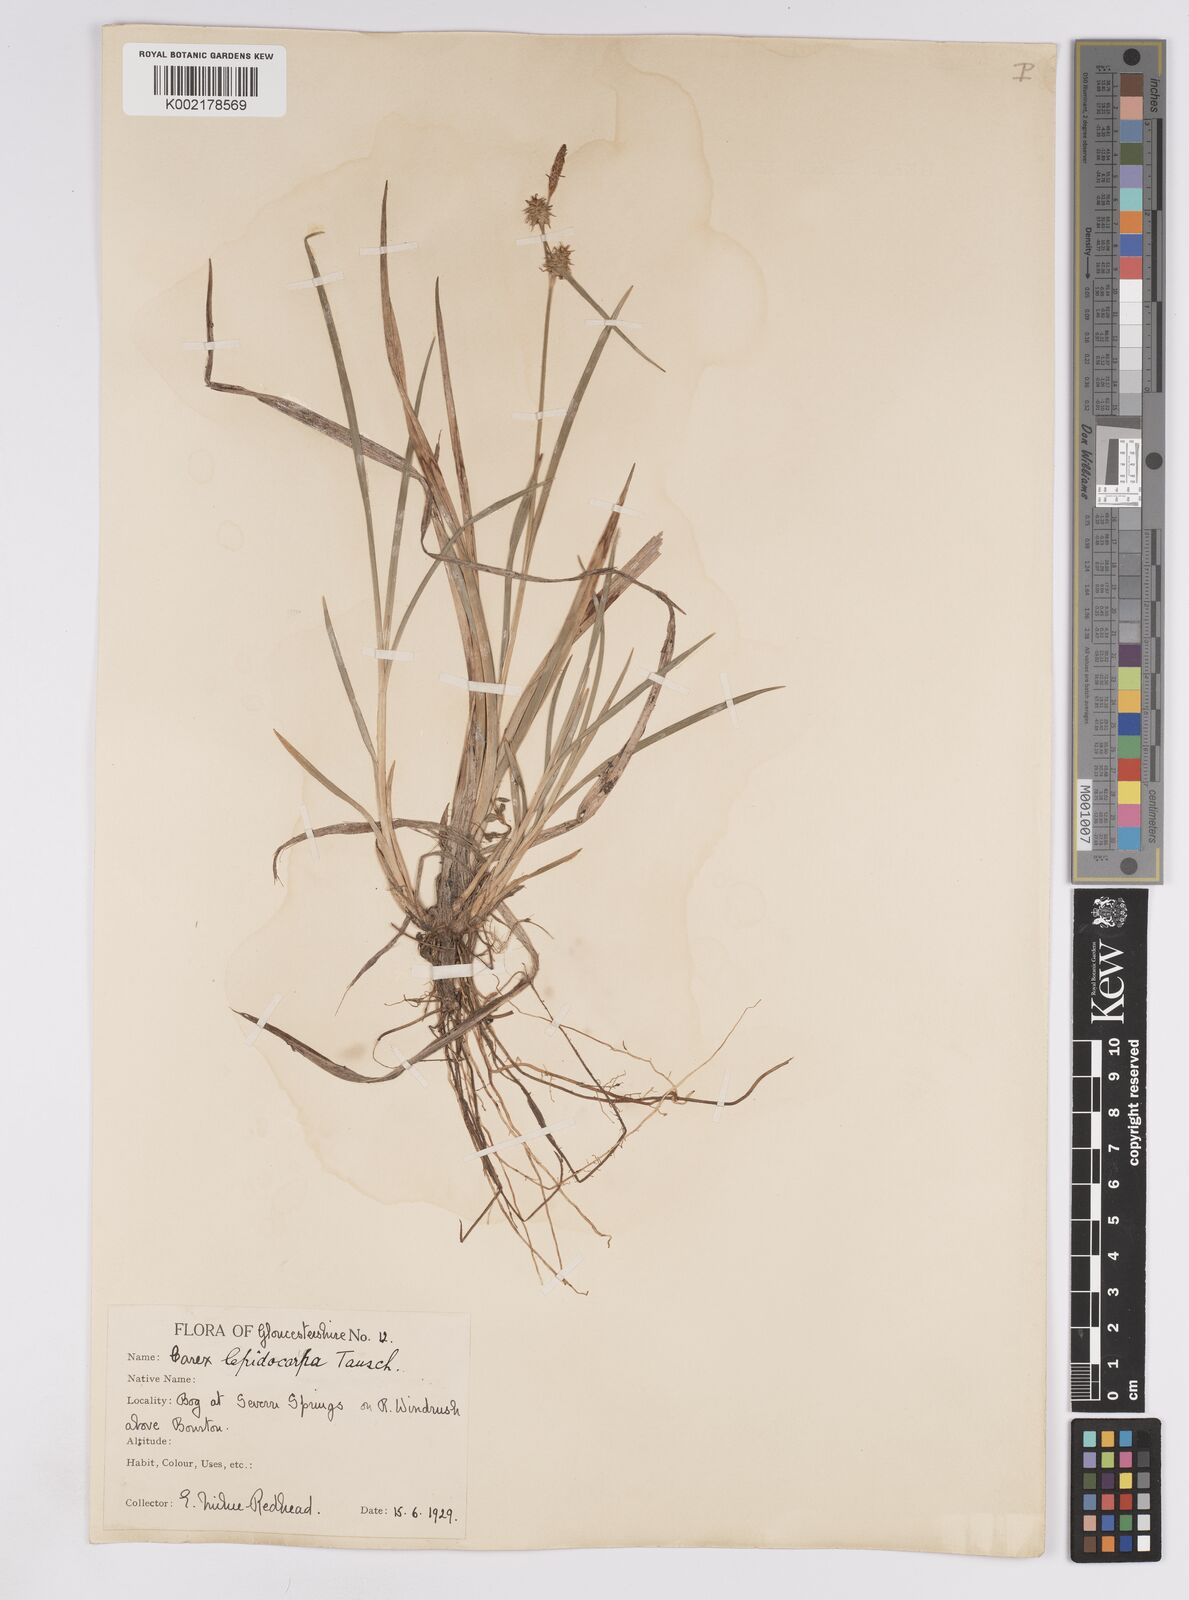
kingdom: Plantae
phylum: Tracheophyta
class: Liliopsida
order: Poales
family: Cyperaceae
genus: Carex
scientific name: Carex lepidocarpa
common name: Long-stalked yellow-sedge
